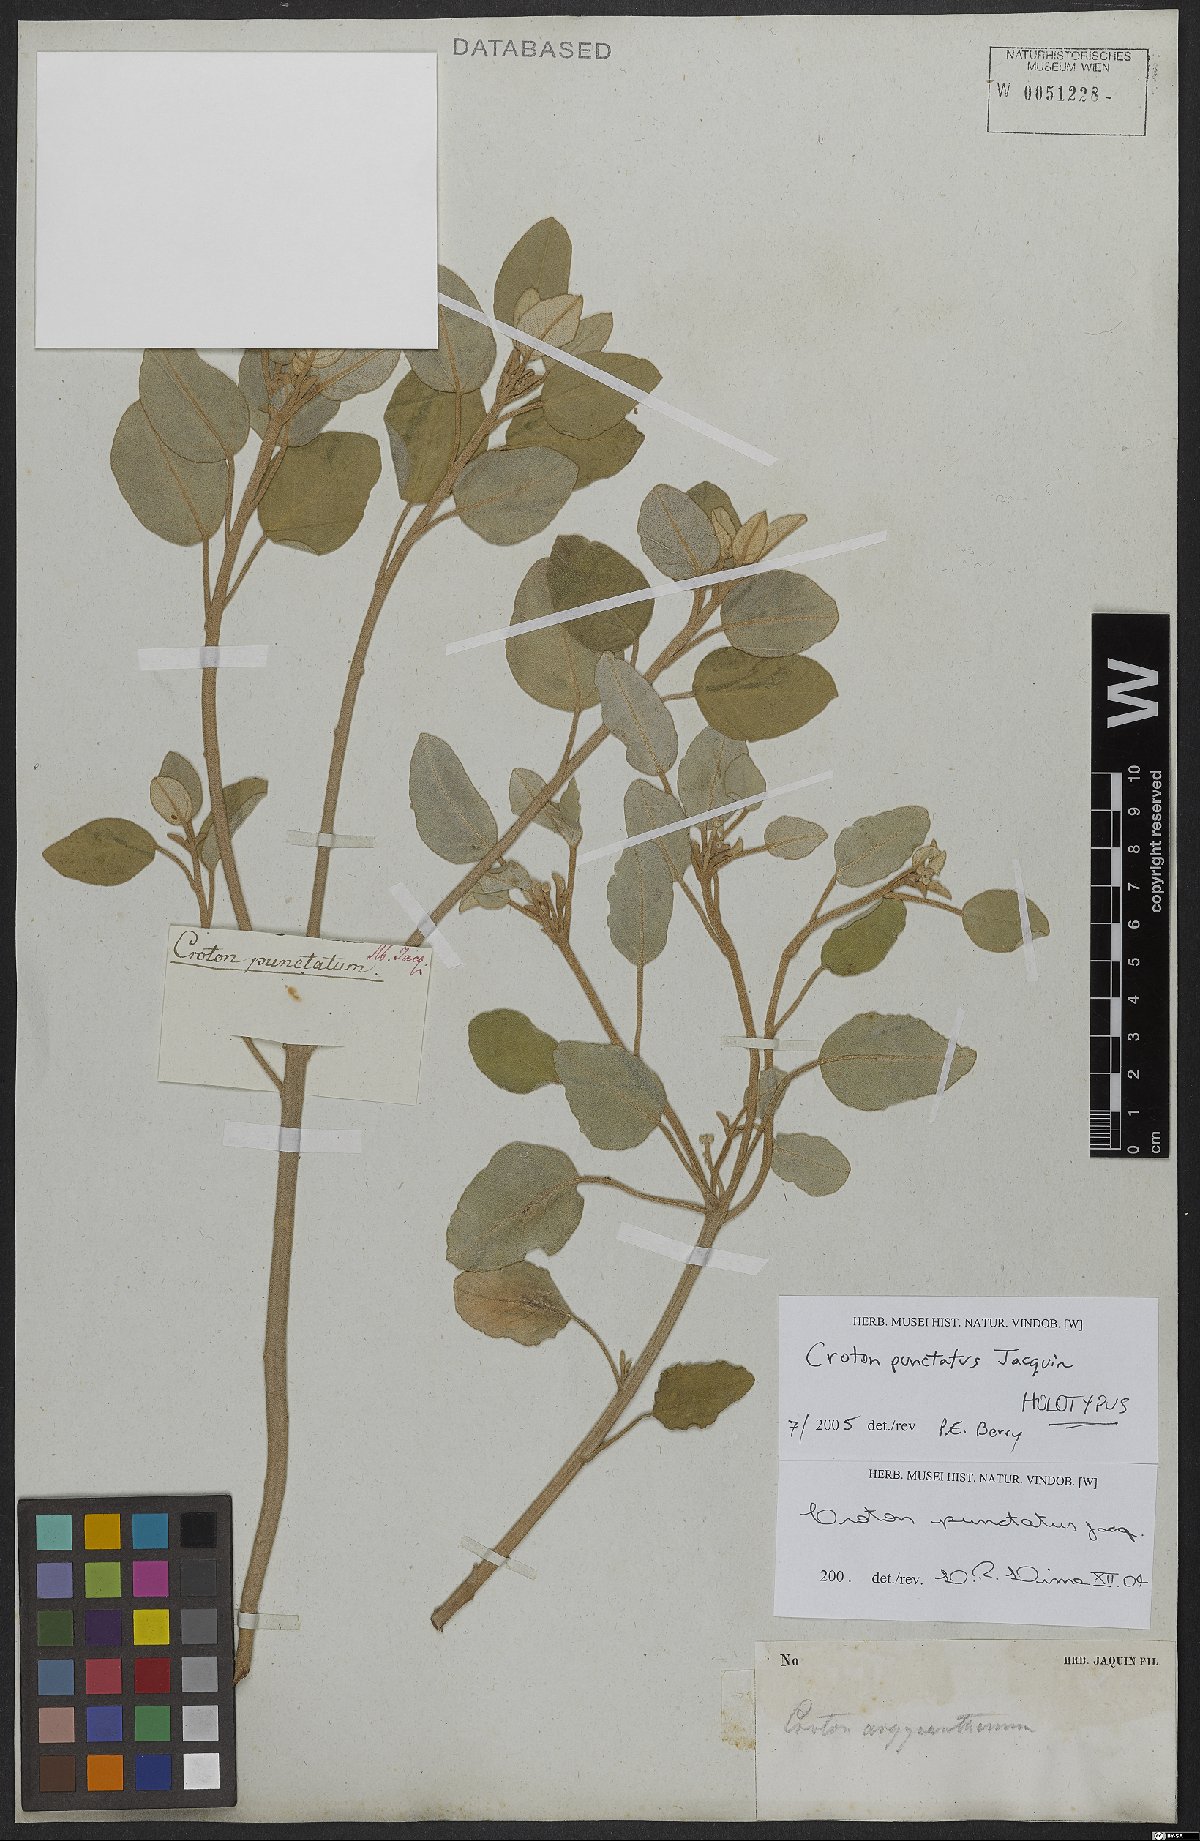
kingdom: Plantae
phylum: Tracheophyta
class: Magnoliopsida
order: Malpighiales
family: Euphorbiaceae
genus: Croton
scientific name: Croton punctatus
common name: Beach-tea
